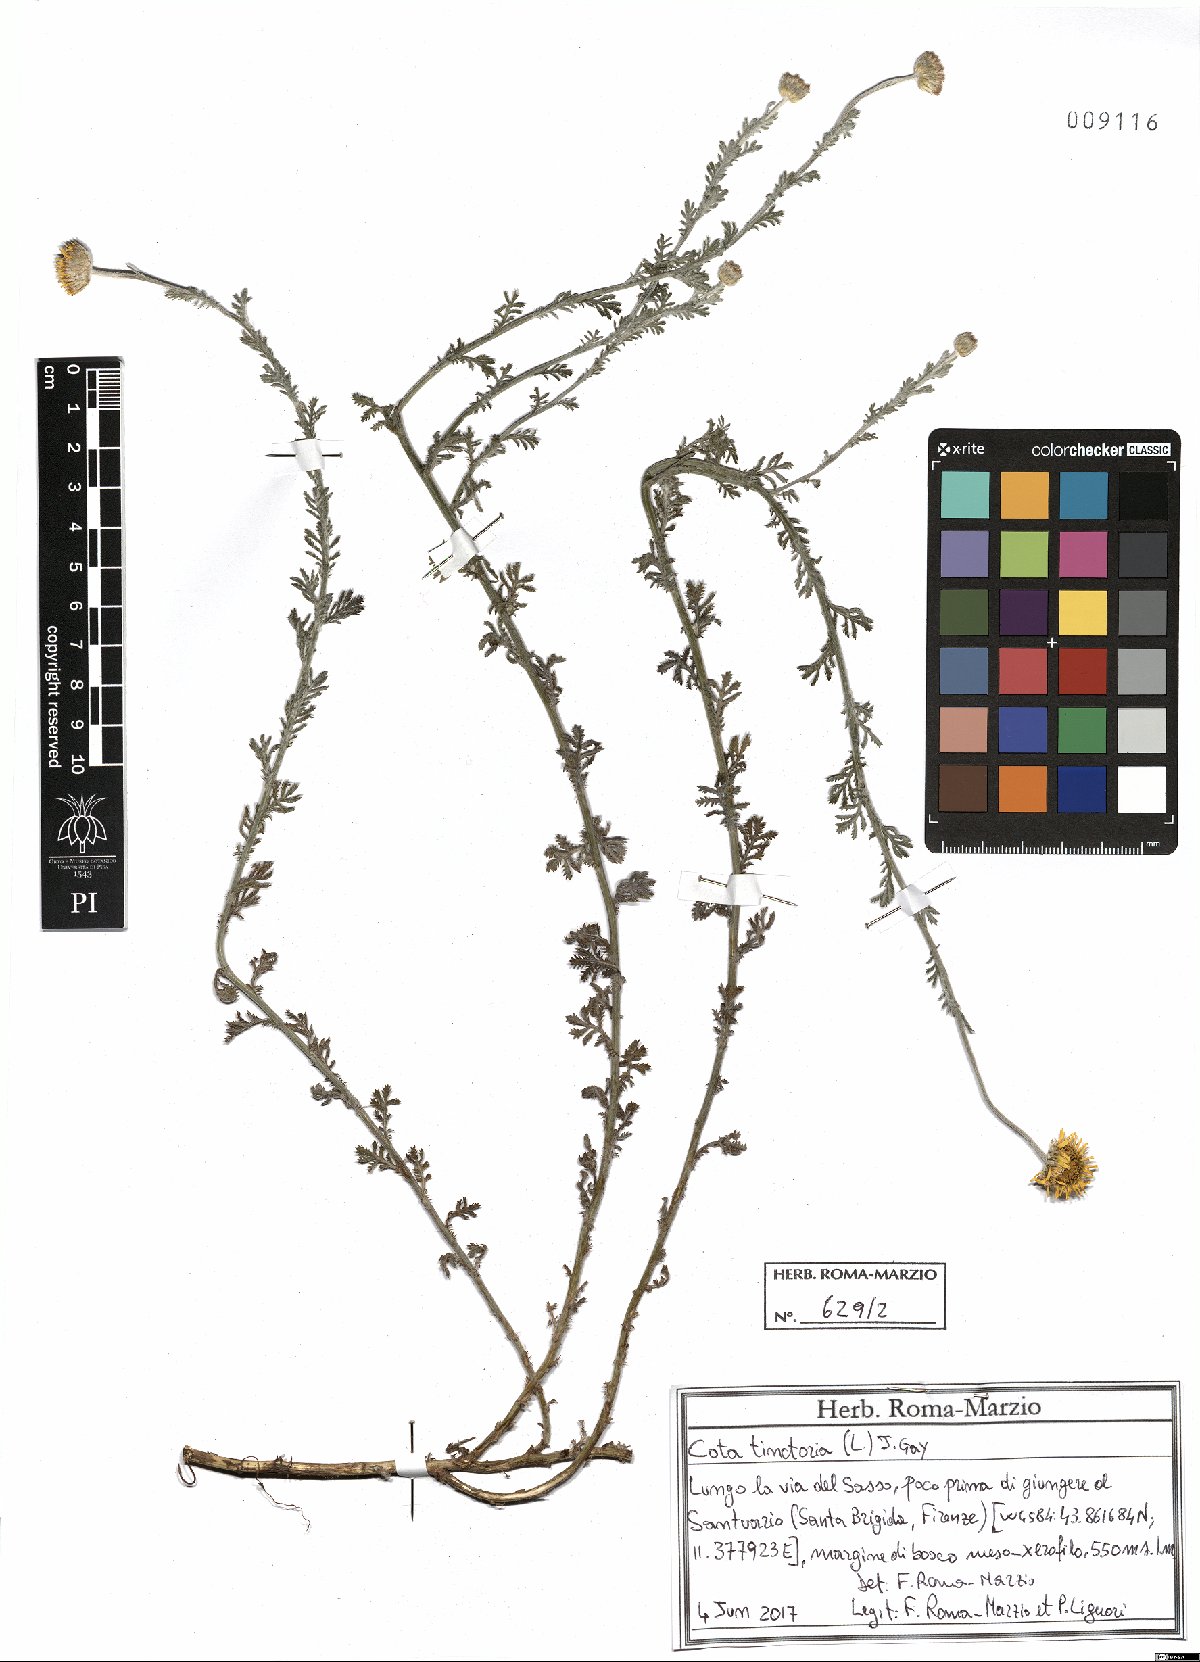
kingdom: Plantae
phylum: Tracheophyta
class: Magnoliopsida
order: Asterales
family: Asteraceae
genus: Cota
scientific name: Cota tinctoria
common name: Golden chamomile
